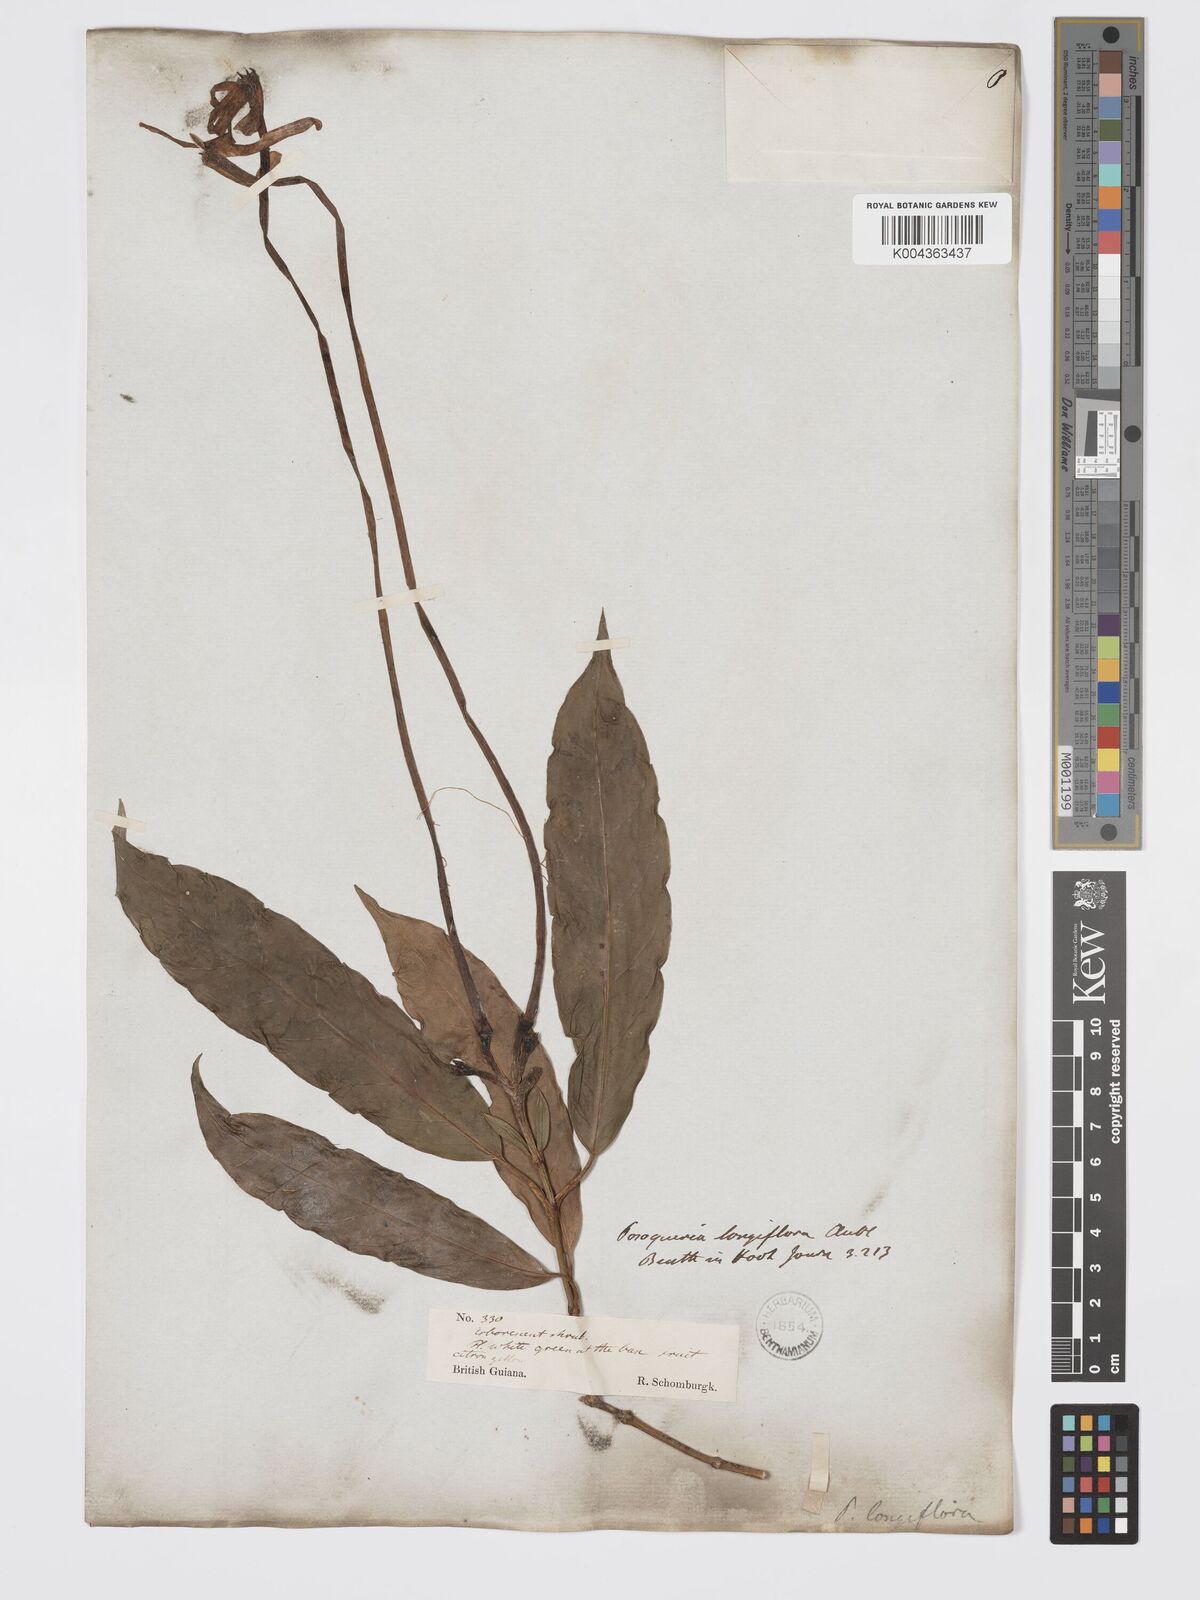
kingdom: Plantae
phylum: Tracheophyta
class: Magnoliopsida
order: Gentianales
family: Rubiaceae
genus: Posoqueria
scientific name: Posoqueria
